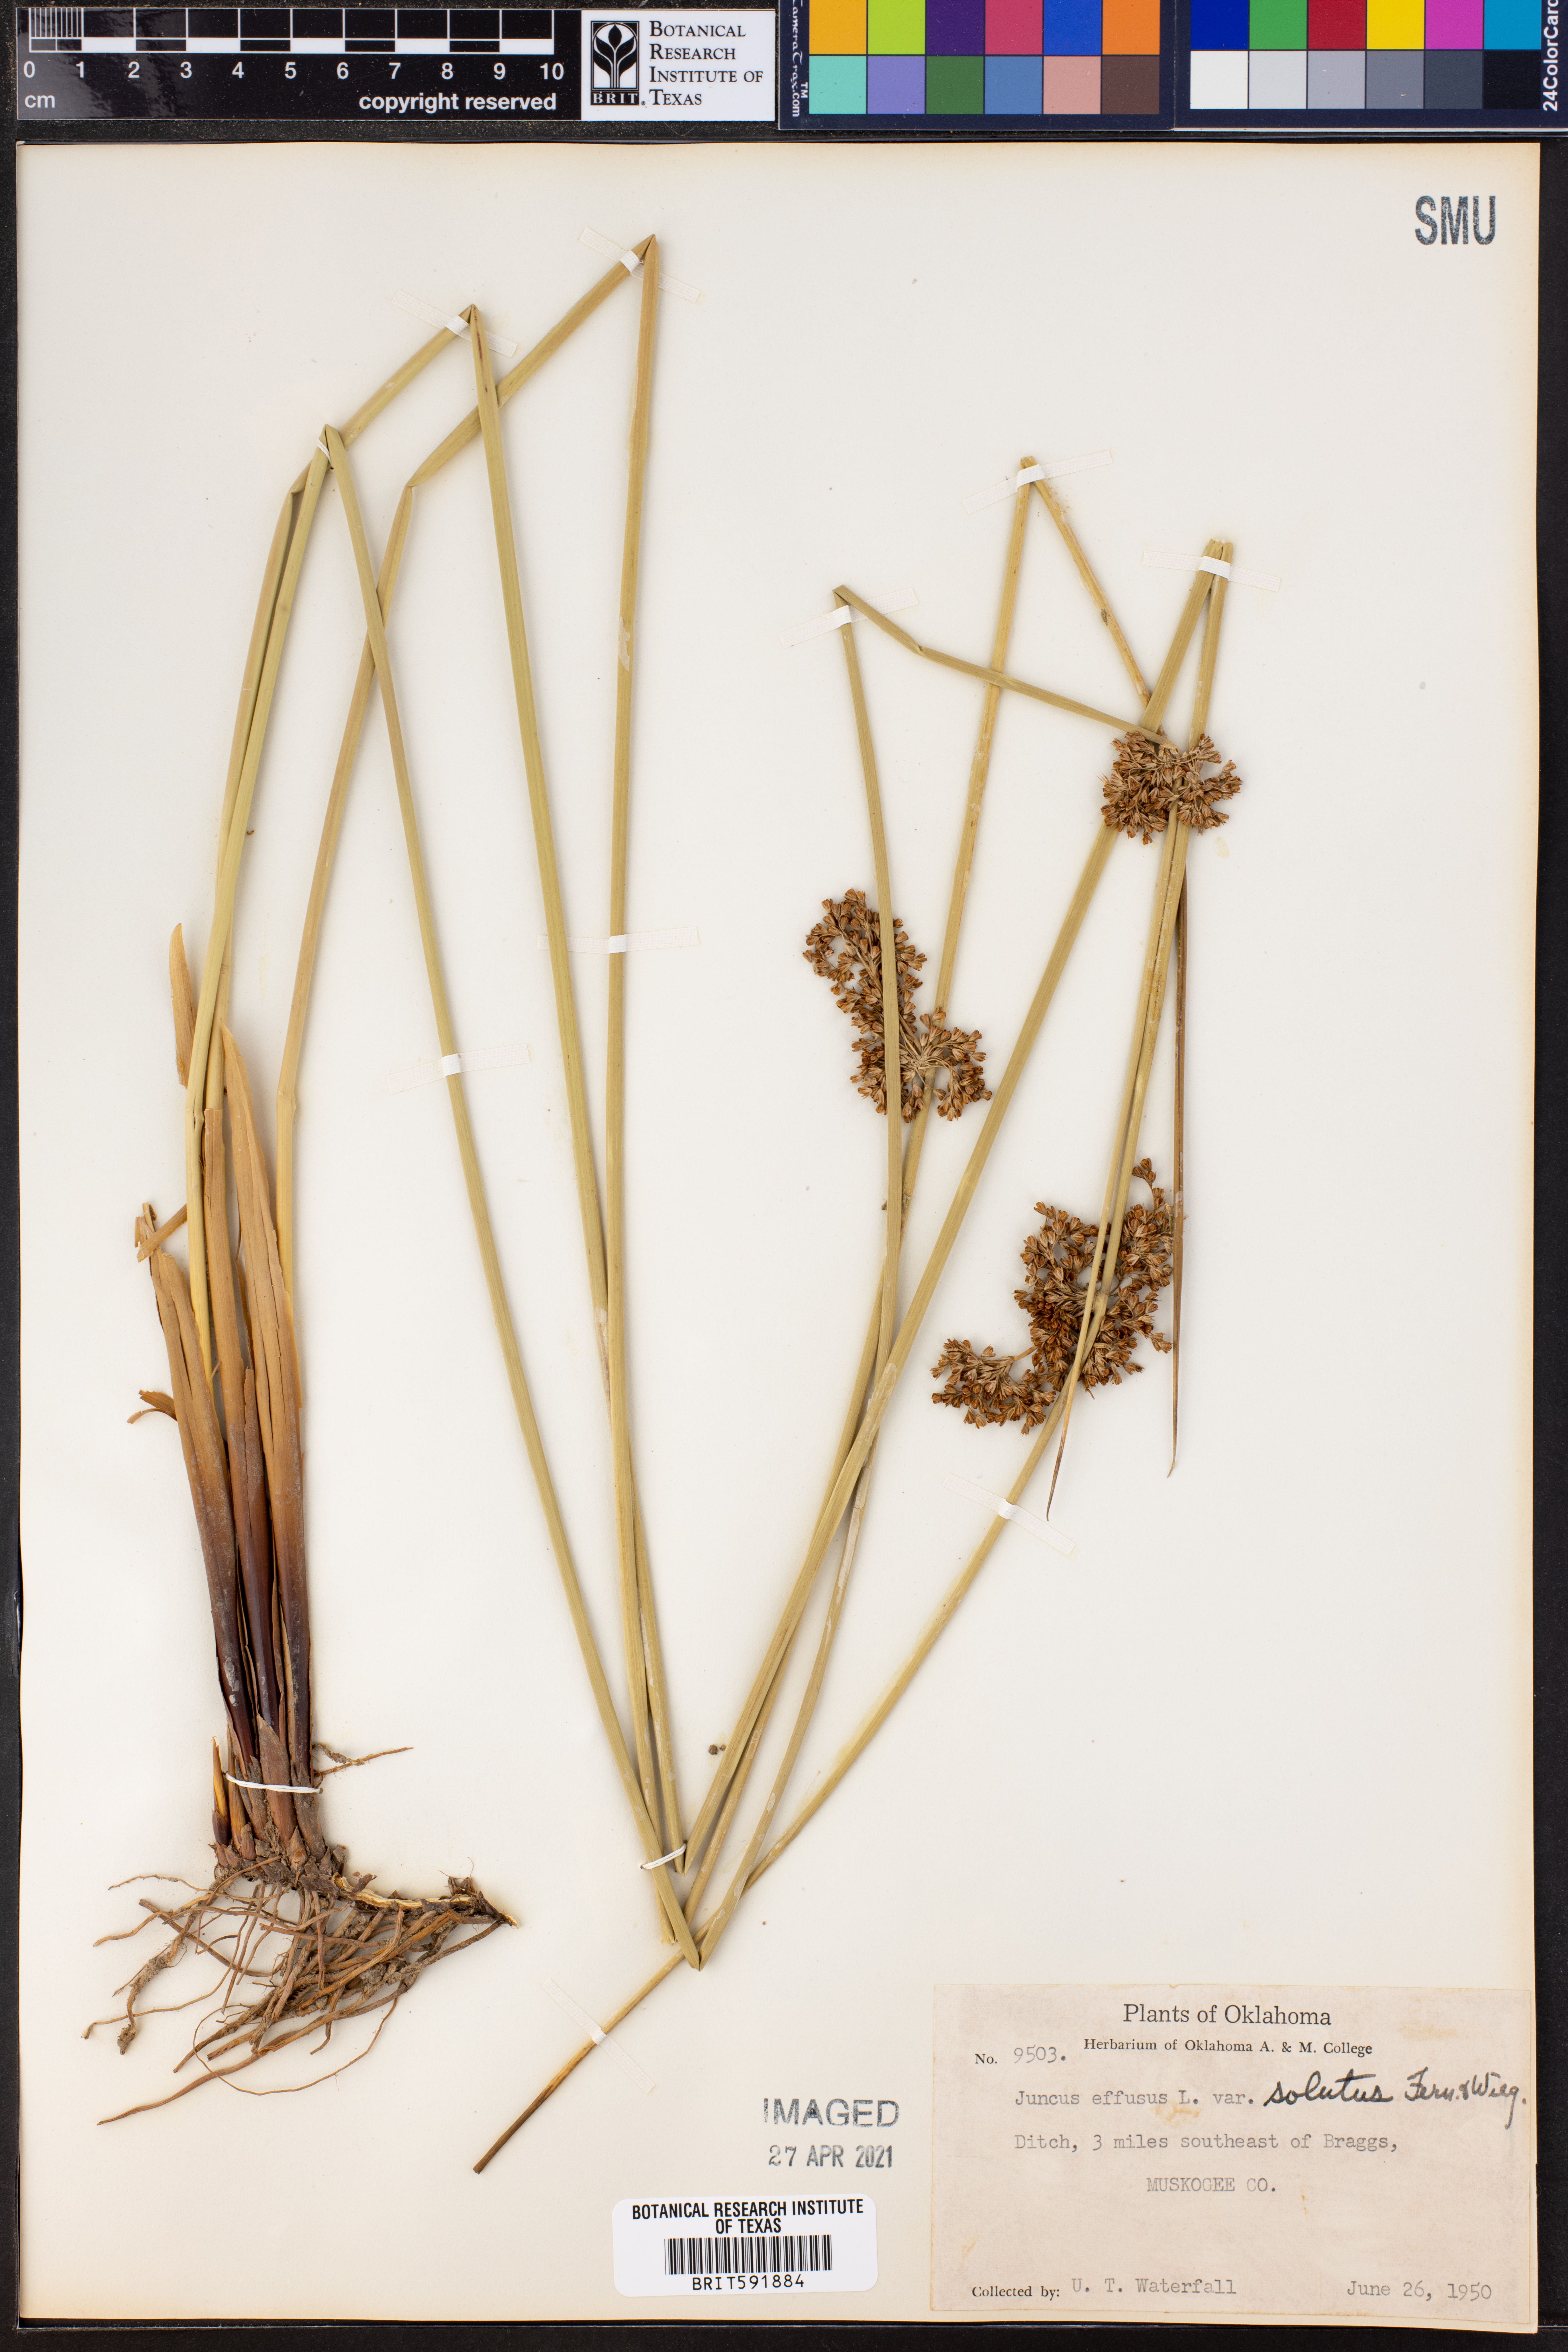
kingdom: Plantae
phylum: Tracheophyta
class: Liliopsida
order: Poales
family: Juncaceae
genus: Juncus
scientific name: Juncus effusus
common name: Soft rush
